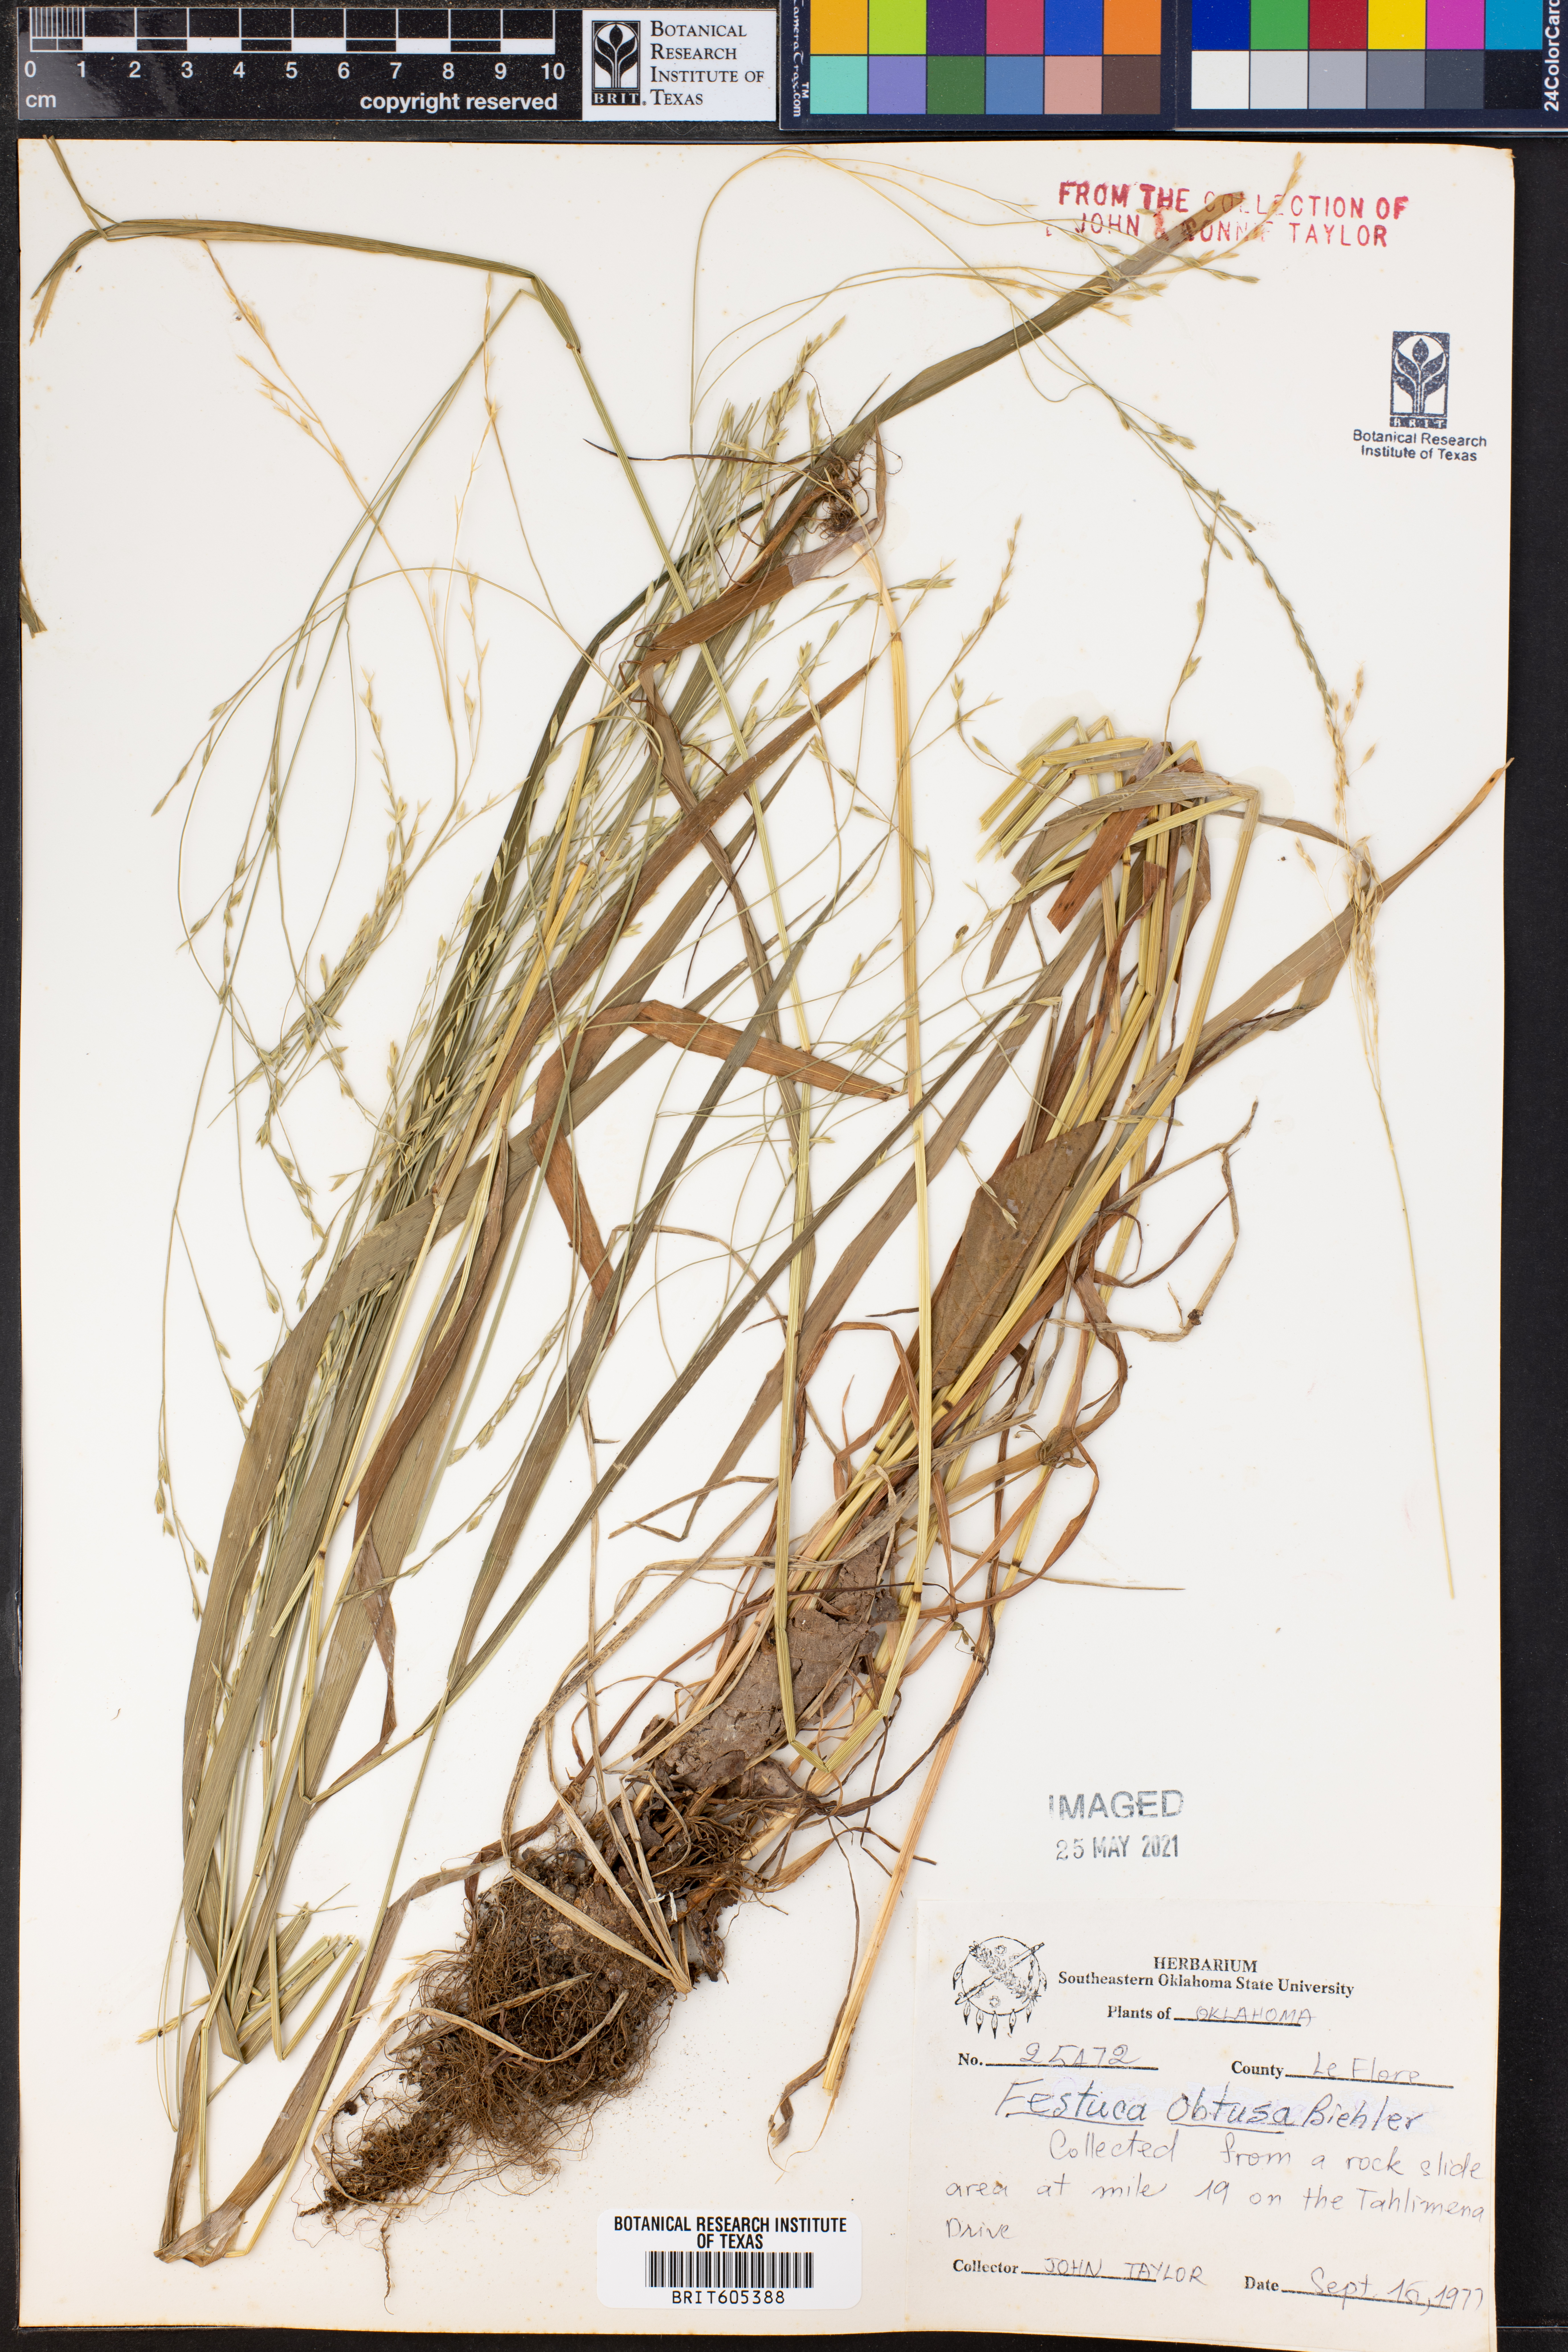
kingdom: Plantae
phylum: Tracheophyta
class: Liliopsida
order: Poales
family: Poaceae
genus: Festuca
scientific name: Festuca subverticillata
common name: Nodding fescue
